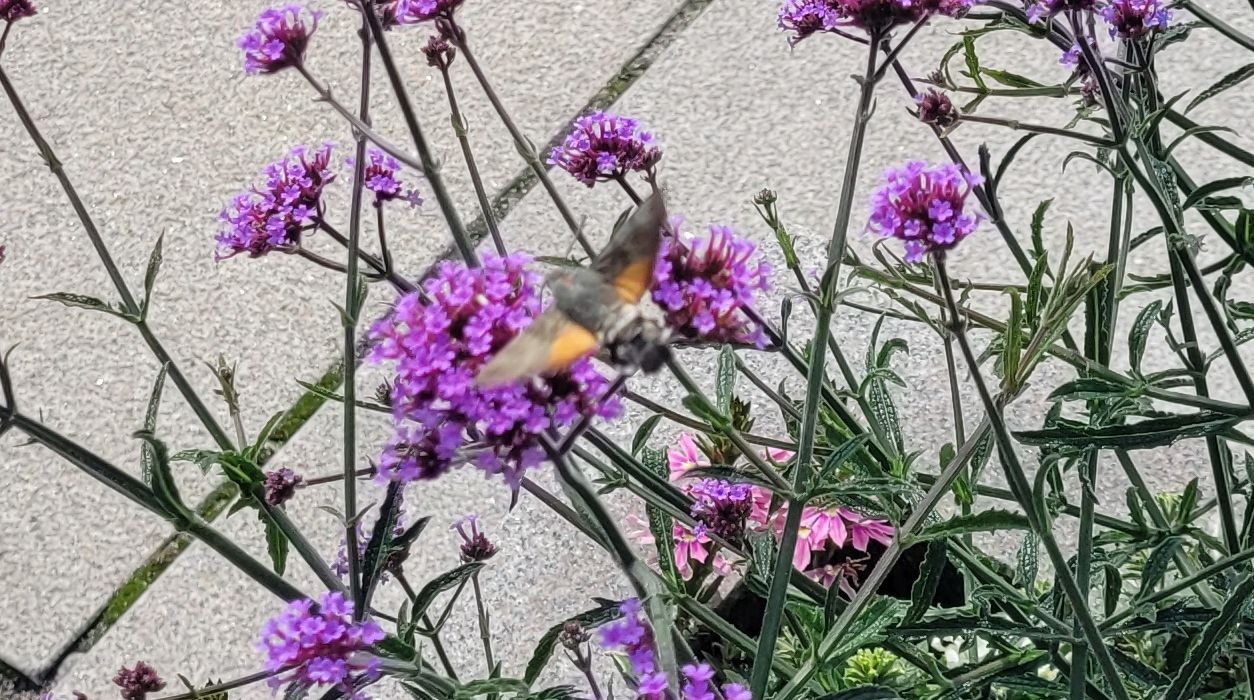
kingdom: Animalia
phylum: Arthropoda
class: Insecta
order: Lepidoptera
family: Sphingidae
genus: Macroglossum
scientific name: Macroglossum stellatarum
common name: Duehale
